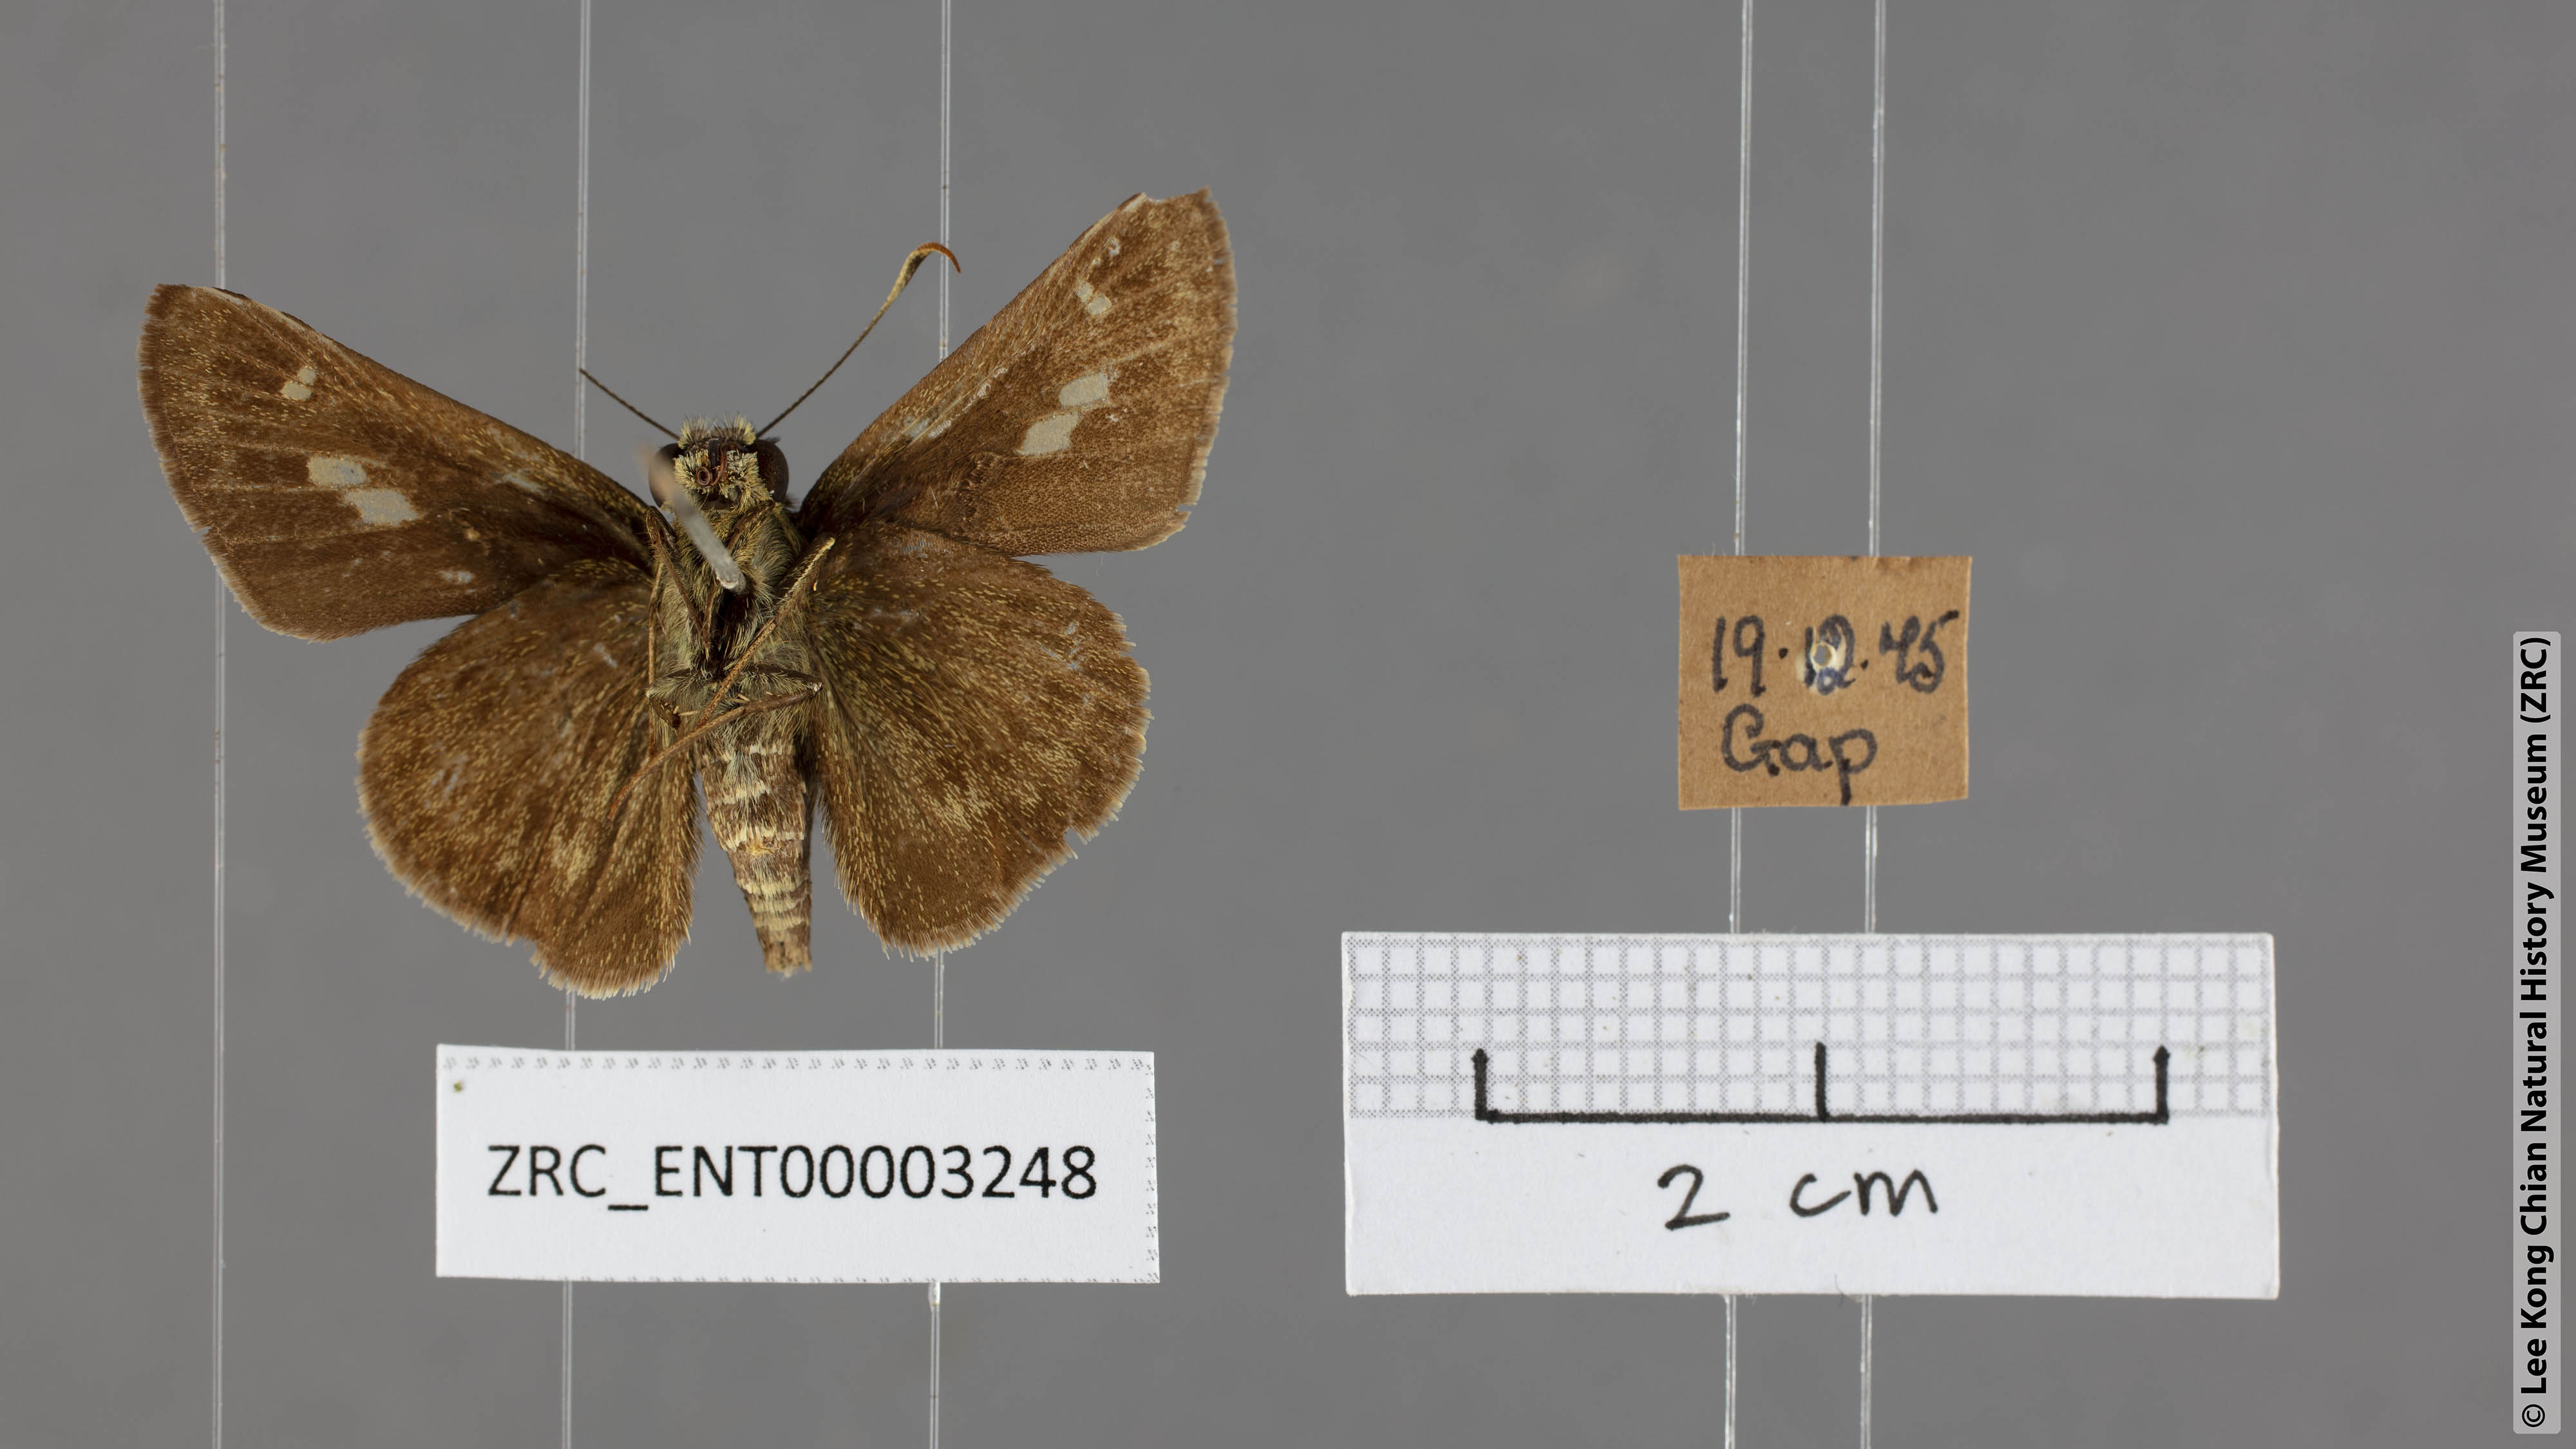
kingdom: Animalia
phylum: Arthropoda
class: Insecta
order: Lepidoptera
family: Hesperiidae
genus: Halpe
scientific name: Halpe sikkima
